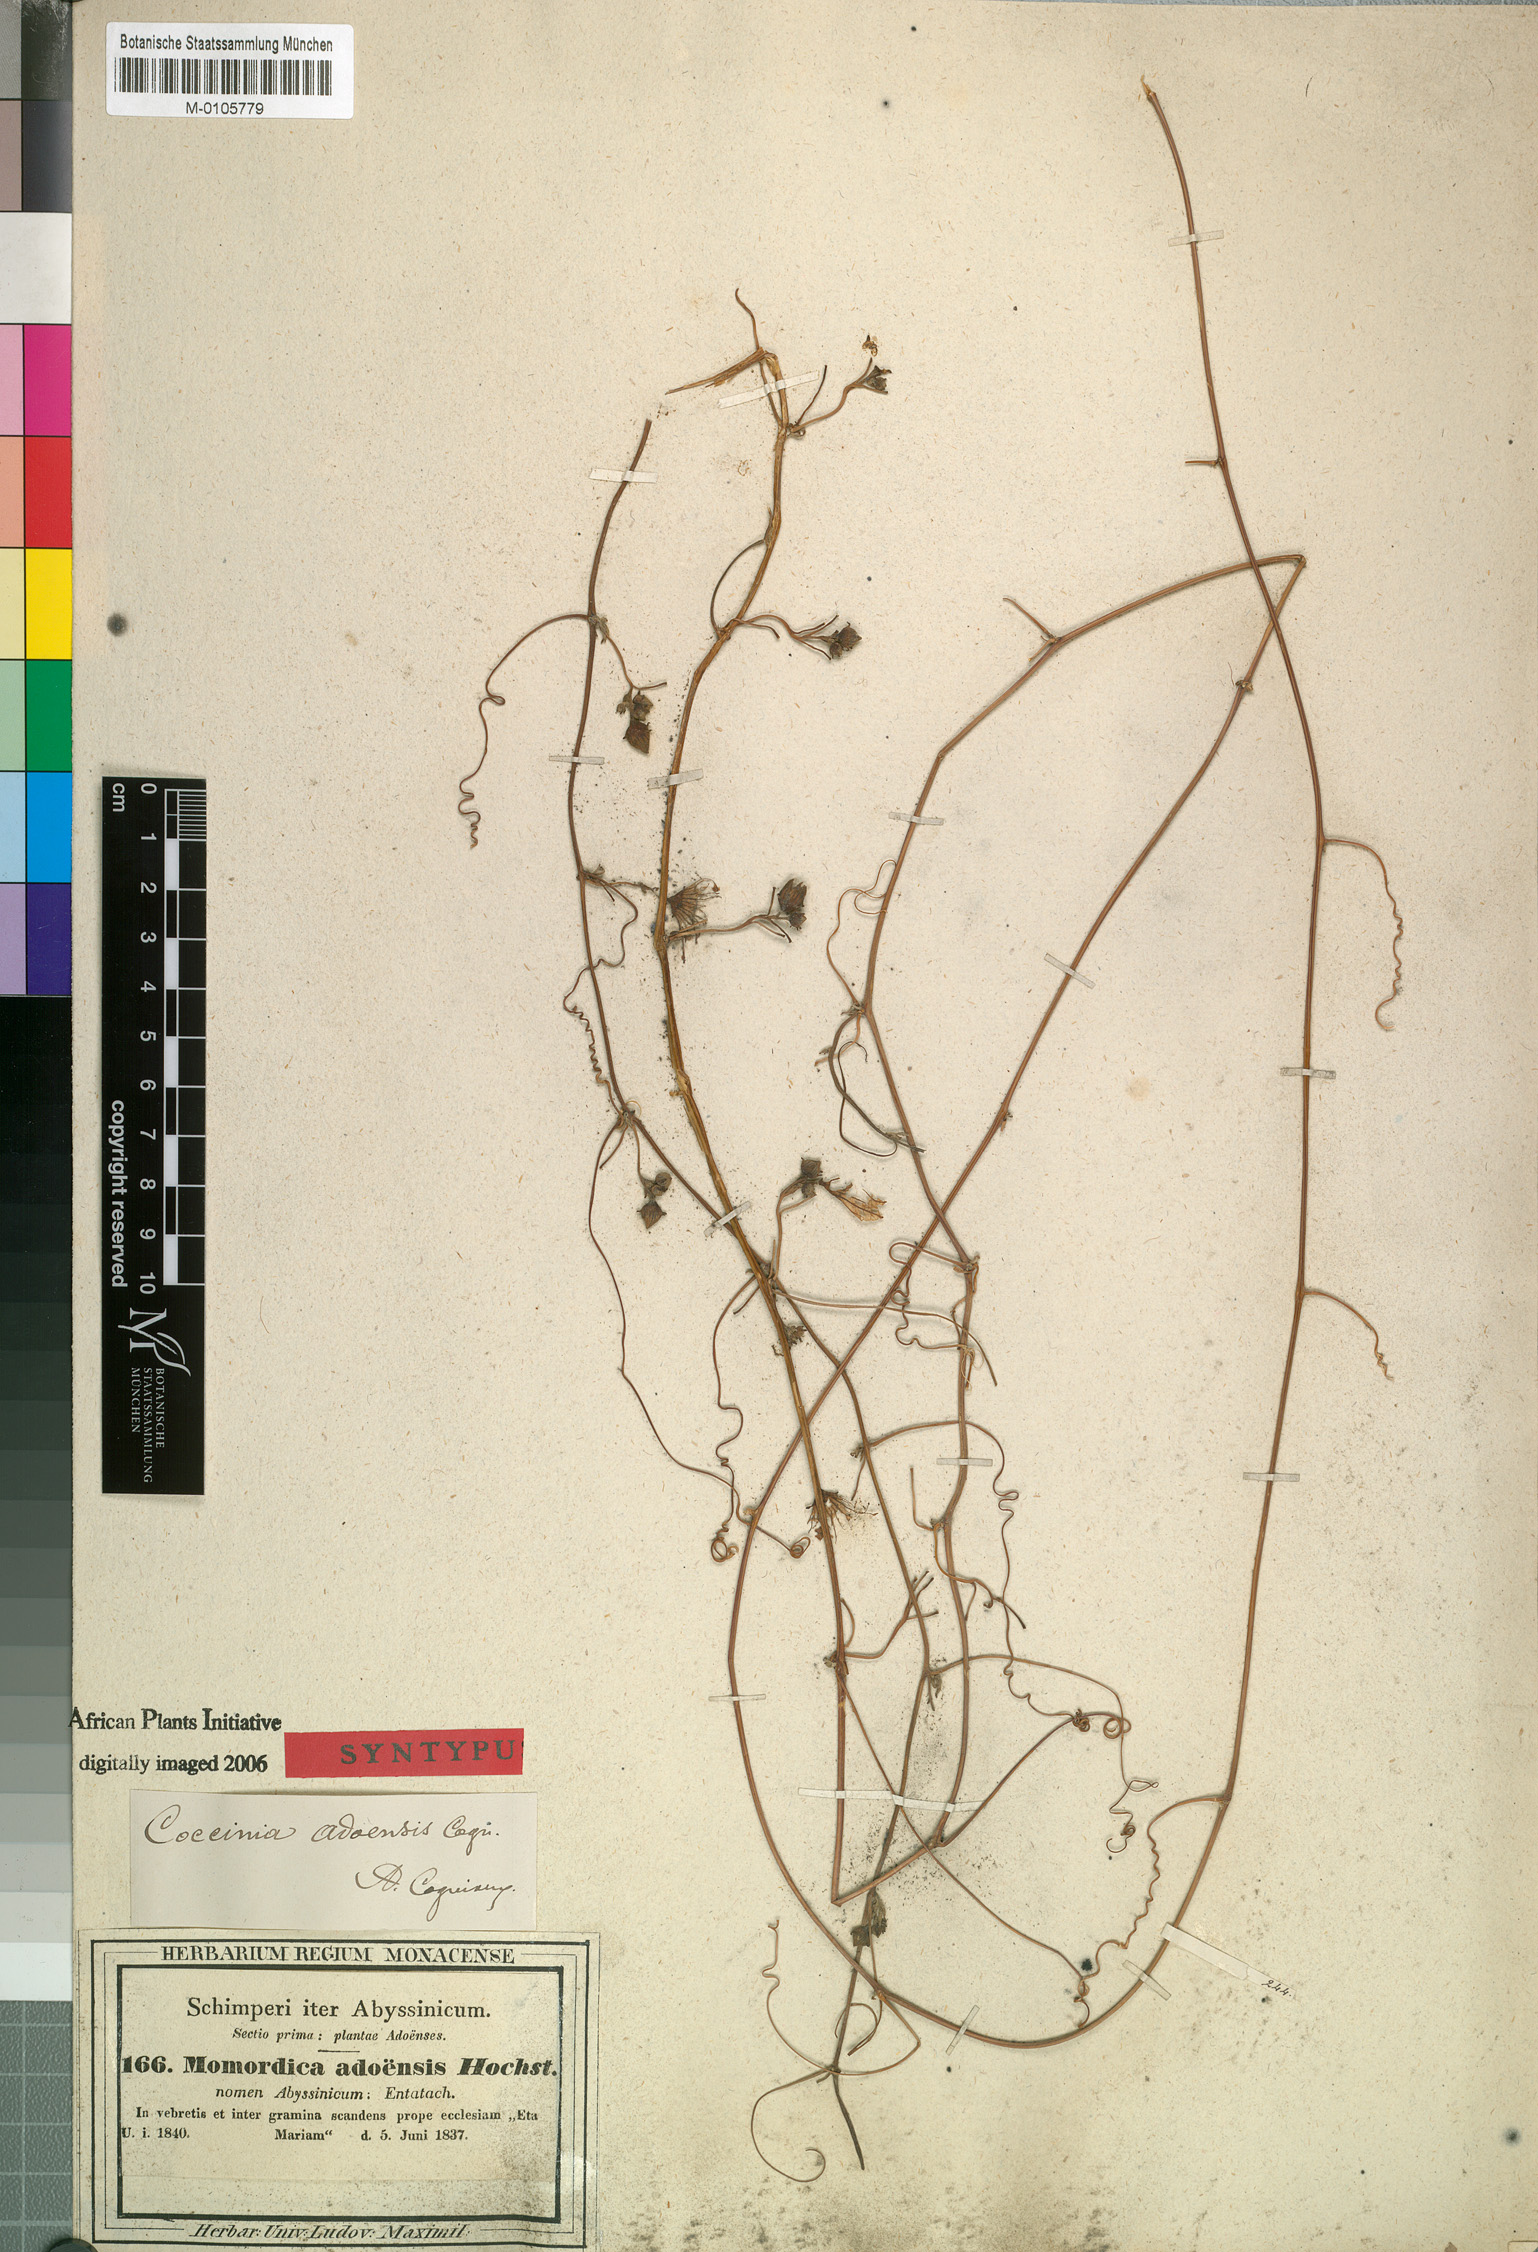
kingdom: Plantae
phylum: Tracheophyta
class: Magnoliopsida
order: Cucurbitales
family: Cucurbitaceae
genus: Coccinia
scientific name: Coccinia adoensis
